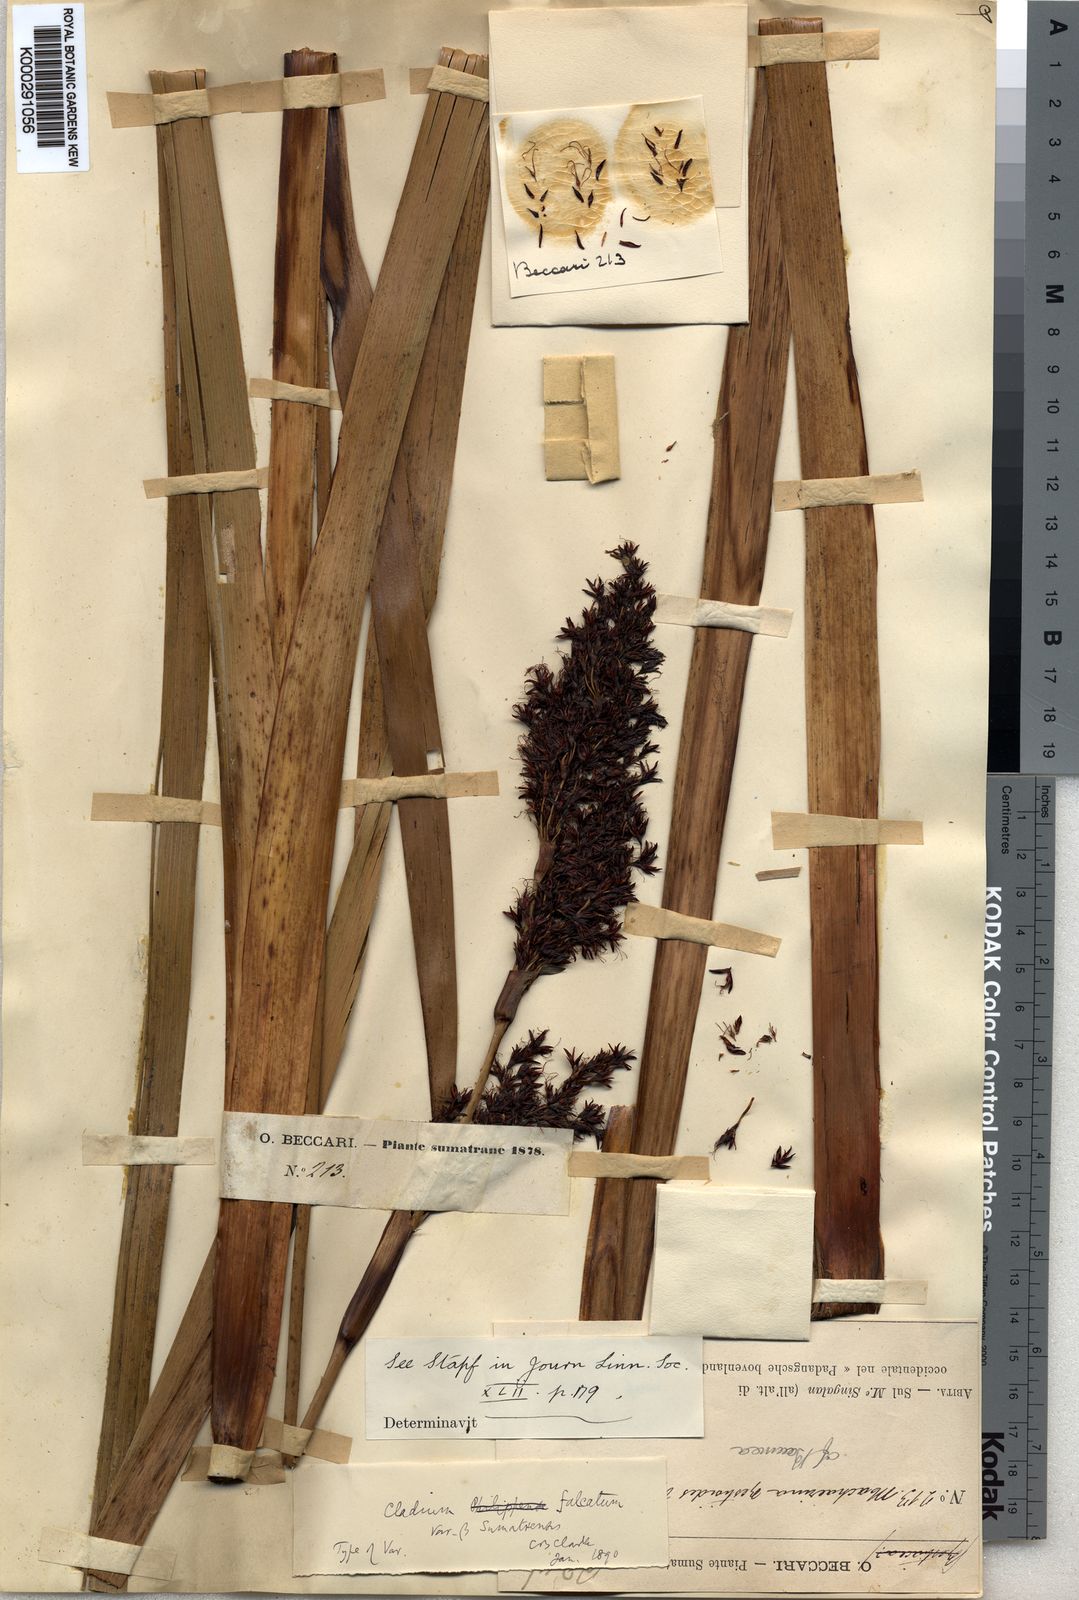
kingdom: Plantae
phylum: Tracheophyta
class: Liliopsida
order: Poales
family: Cyperaceae
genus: Machaerina
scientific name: Machaerina falcata
